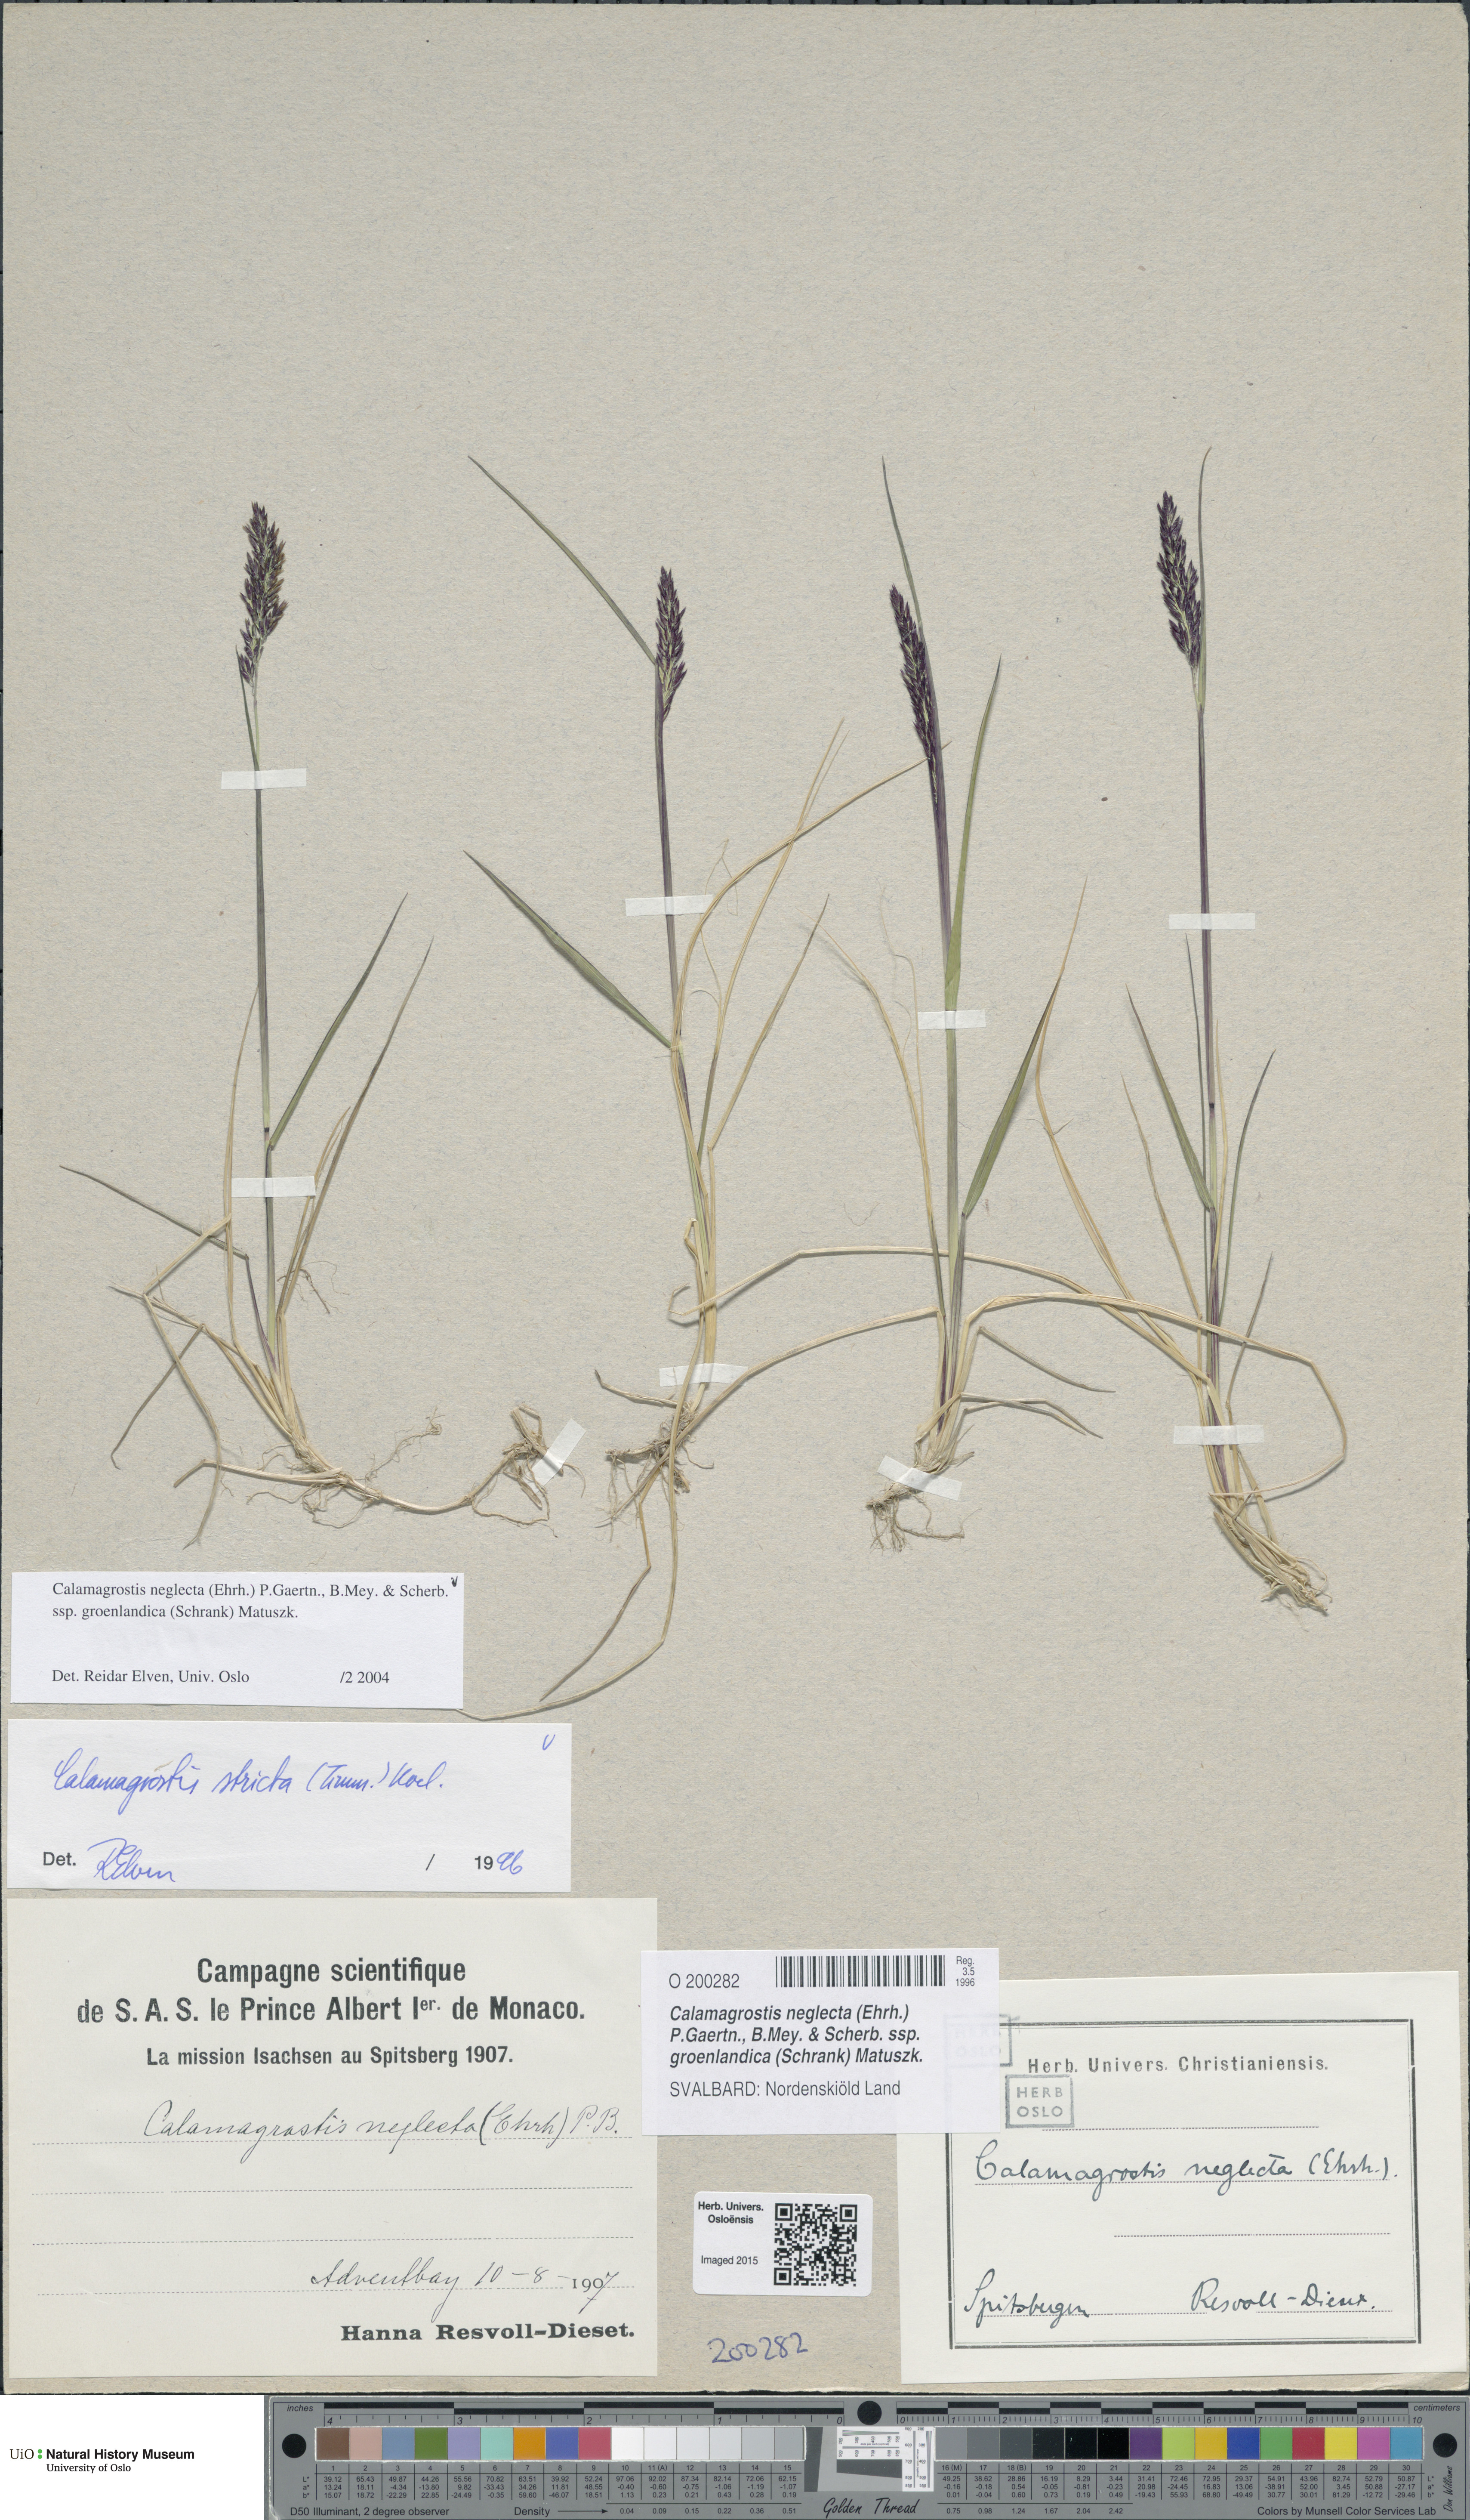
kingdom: Plantae
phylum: Tracheophyta
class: Liliopsida
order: Poales
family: Poaceae
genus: Calamagrostis
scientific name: Calamagrostis stricta
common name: Narrow small-reed
